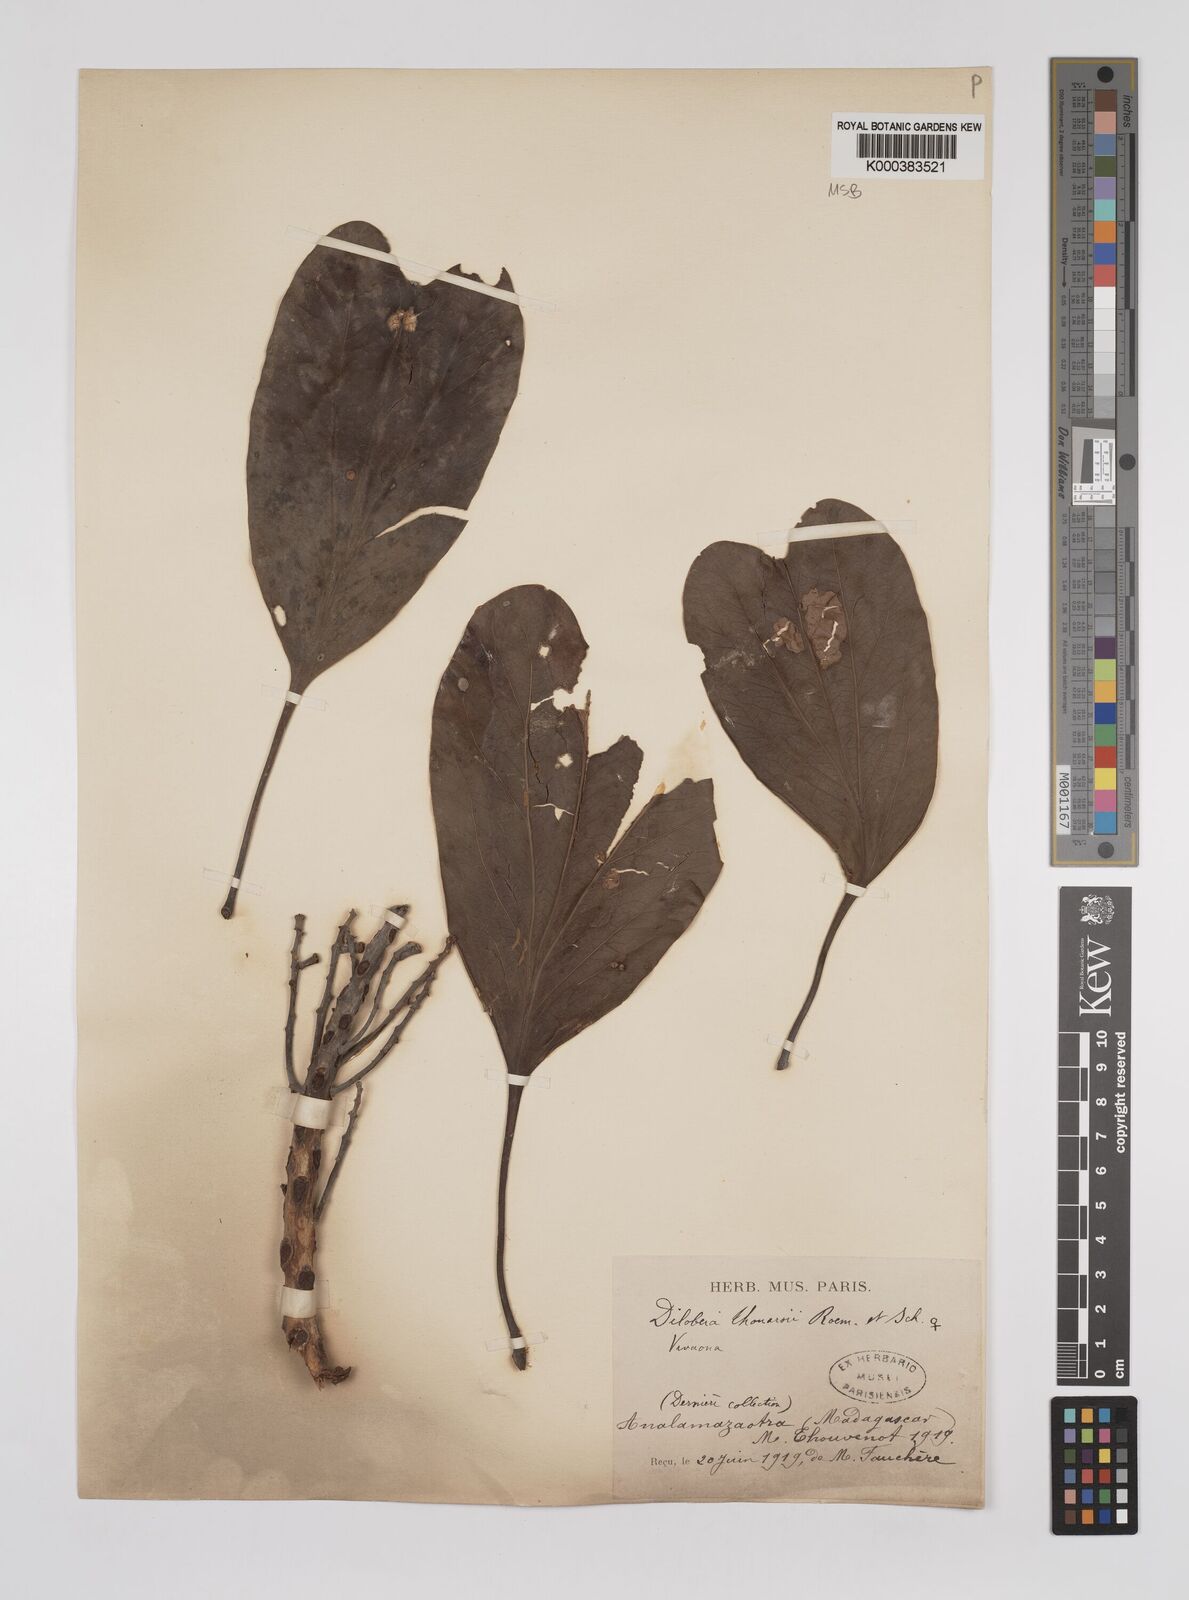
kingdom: Plantae
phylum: Tracheophyta
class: Magnoliopsida
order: Proteales
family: Proteaceae
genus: Dilobeia
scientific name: Dilobeia thouarsii
